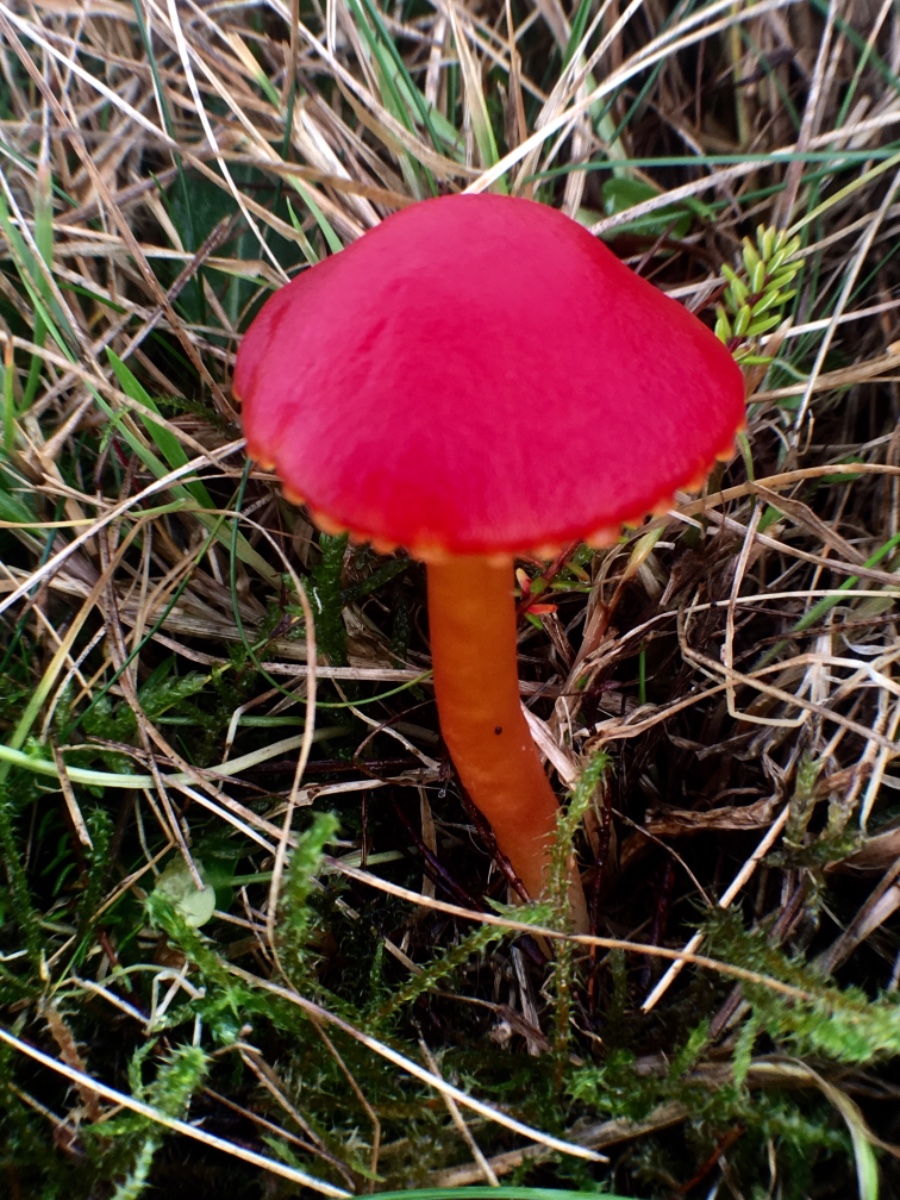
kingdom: Fungi
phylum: Basidiomycota
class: Agaricomycetes
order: Agaricales
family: Hygrophoraceae
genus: Hygrocybe
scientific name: Hygrocybe coccinea
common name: cinnober-vokshat
